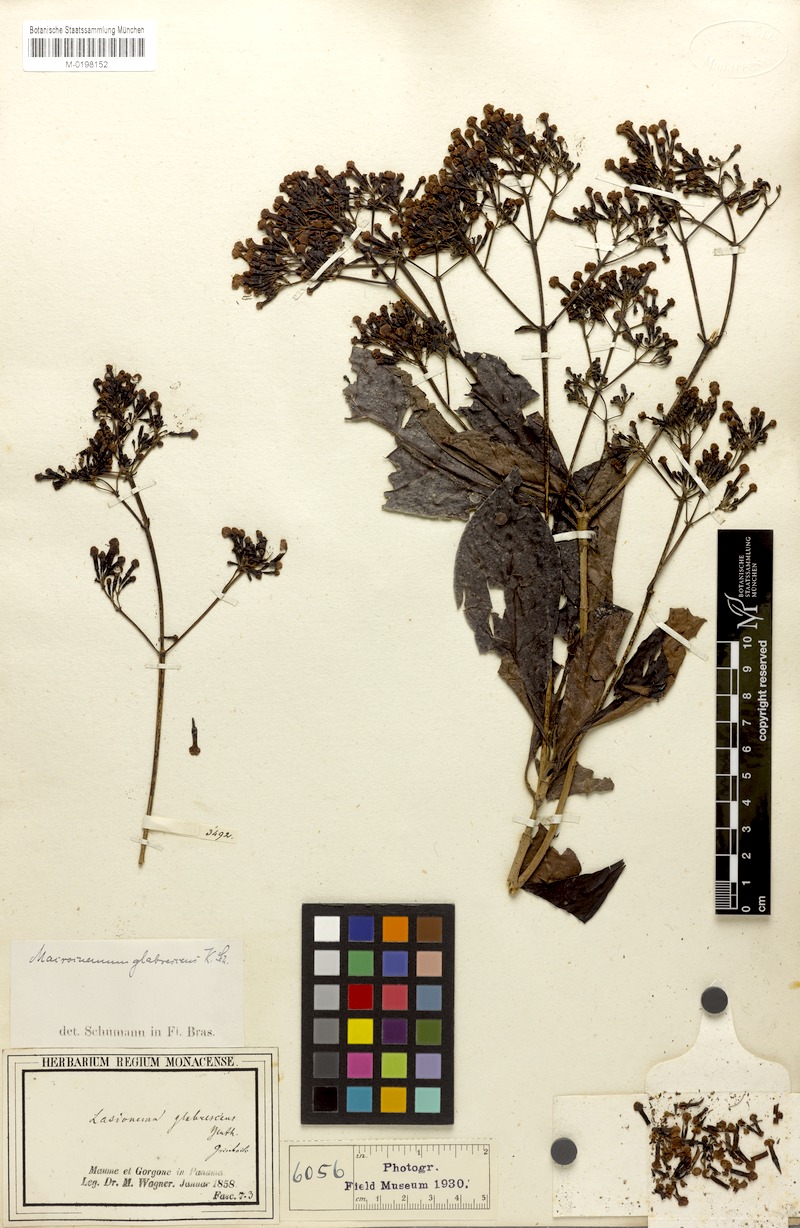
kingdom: Plantae
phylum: Tracheophyta
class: Magnoliopsida
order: Gentianales
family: Rubiaceae
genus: Macrocnemum
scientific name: Macrocnemum roseum
